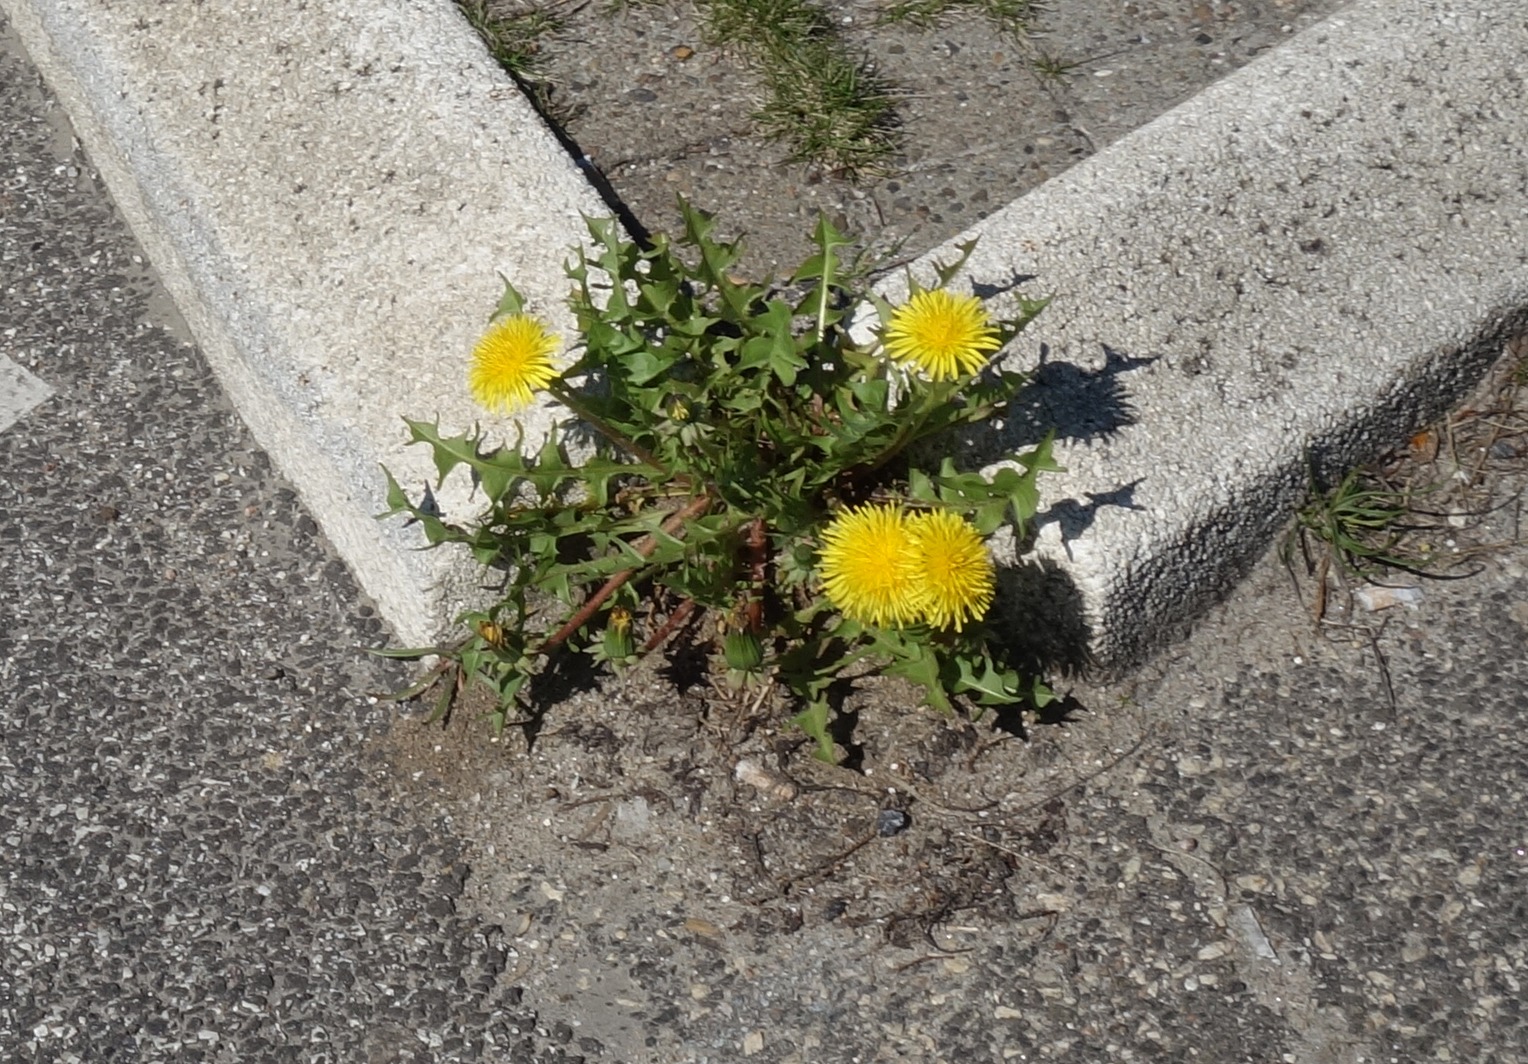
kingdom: Plantae
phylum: Tracheophyta
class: Magnoliopsida
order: Asterales
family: Asteraceae
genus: Taraxacum
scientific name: Taraxacum
